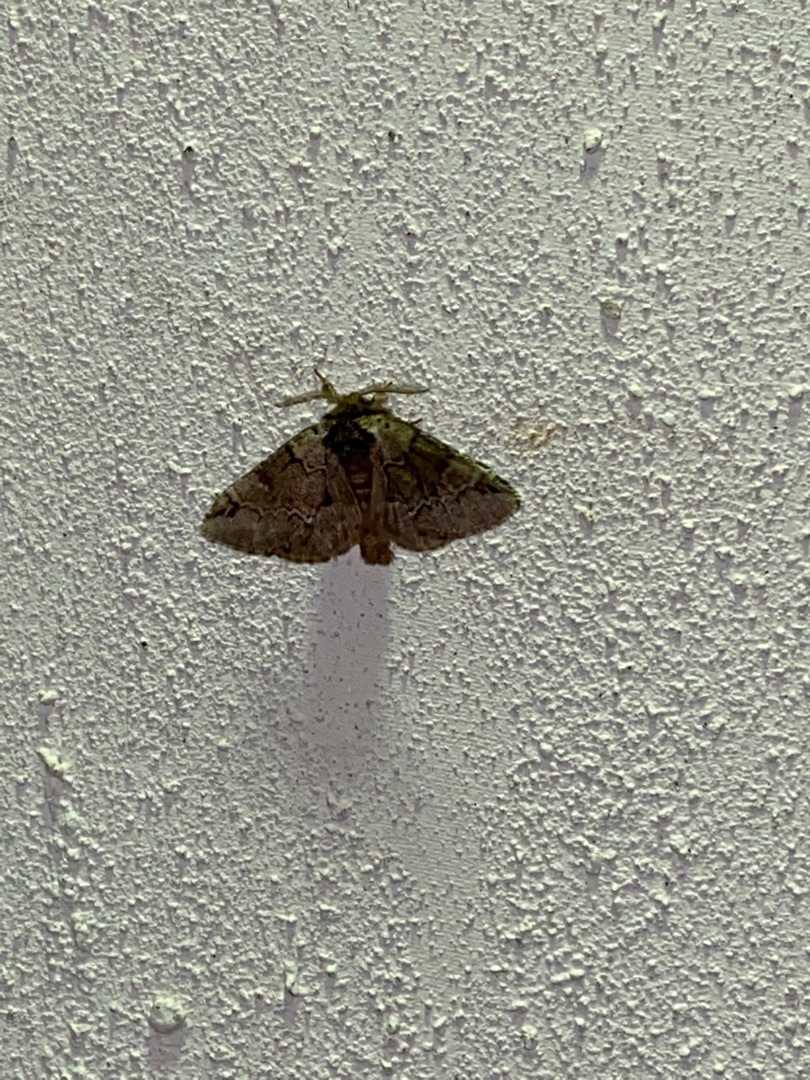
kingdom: Animalia
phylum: Arthropoda
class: Insecta
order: Lepidoptera
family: Notodontidae
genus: Drymonia
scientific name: Drymonia obliterata
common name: Bøgeskovspinder
